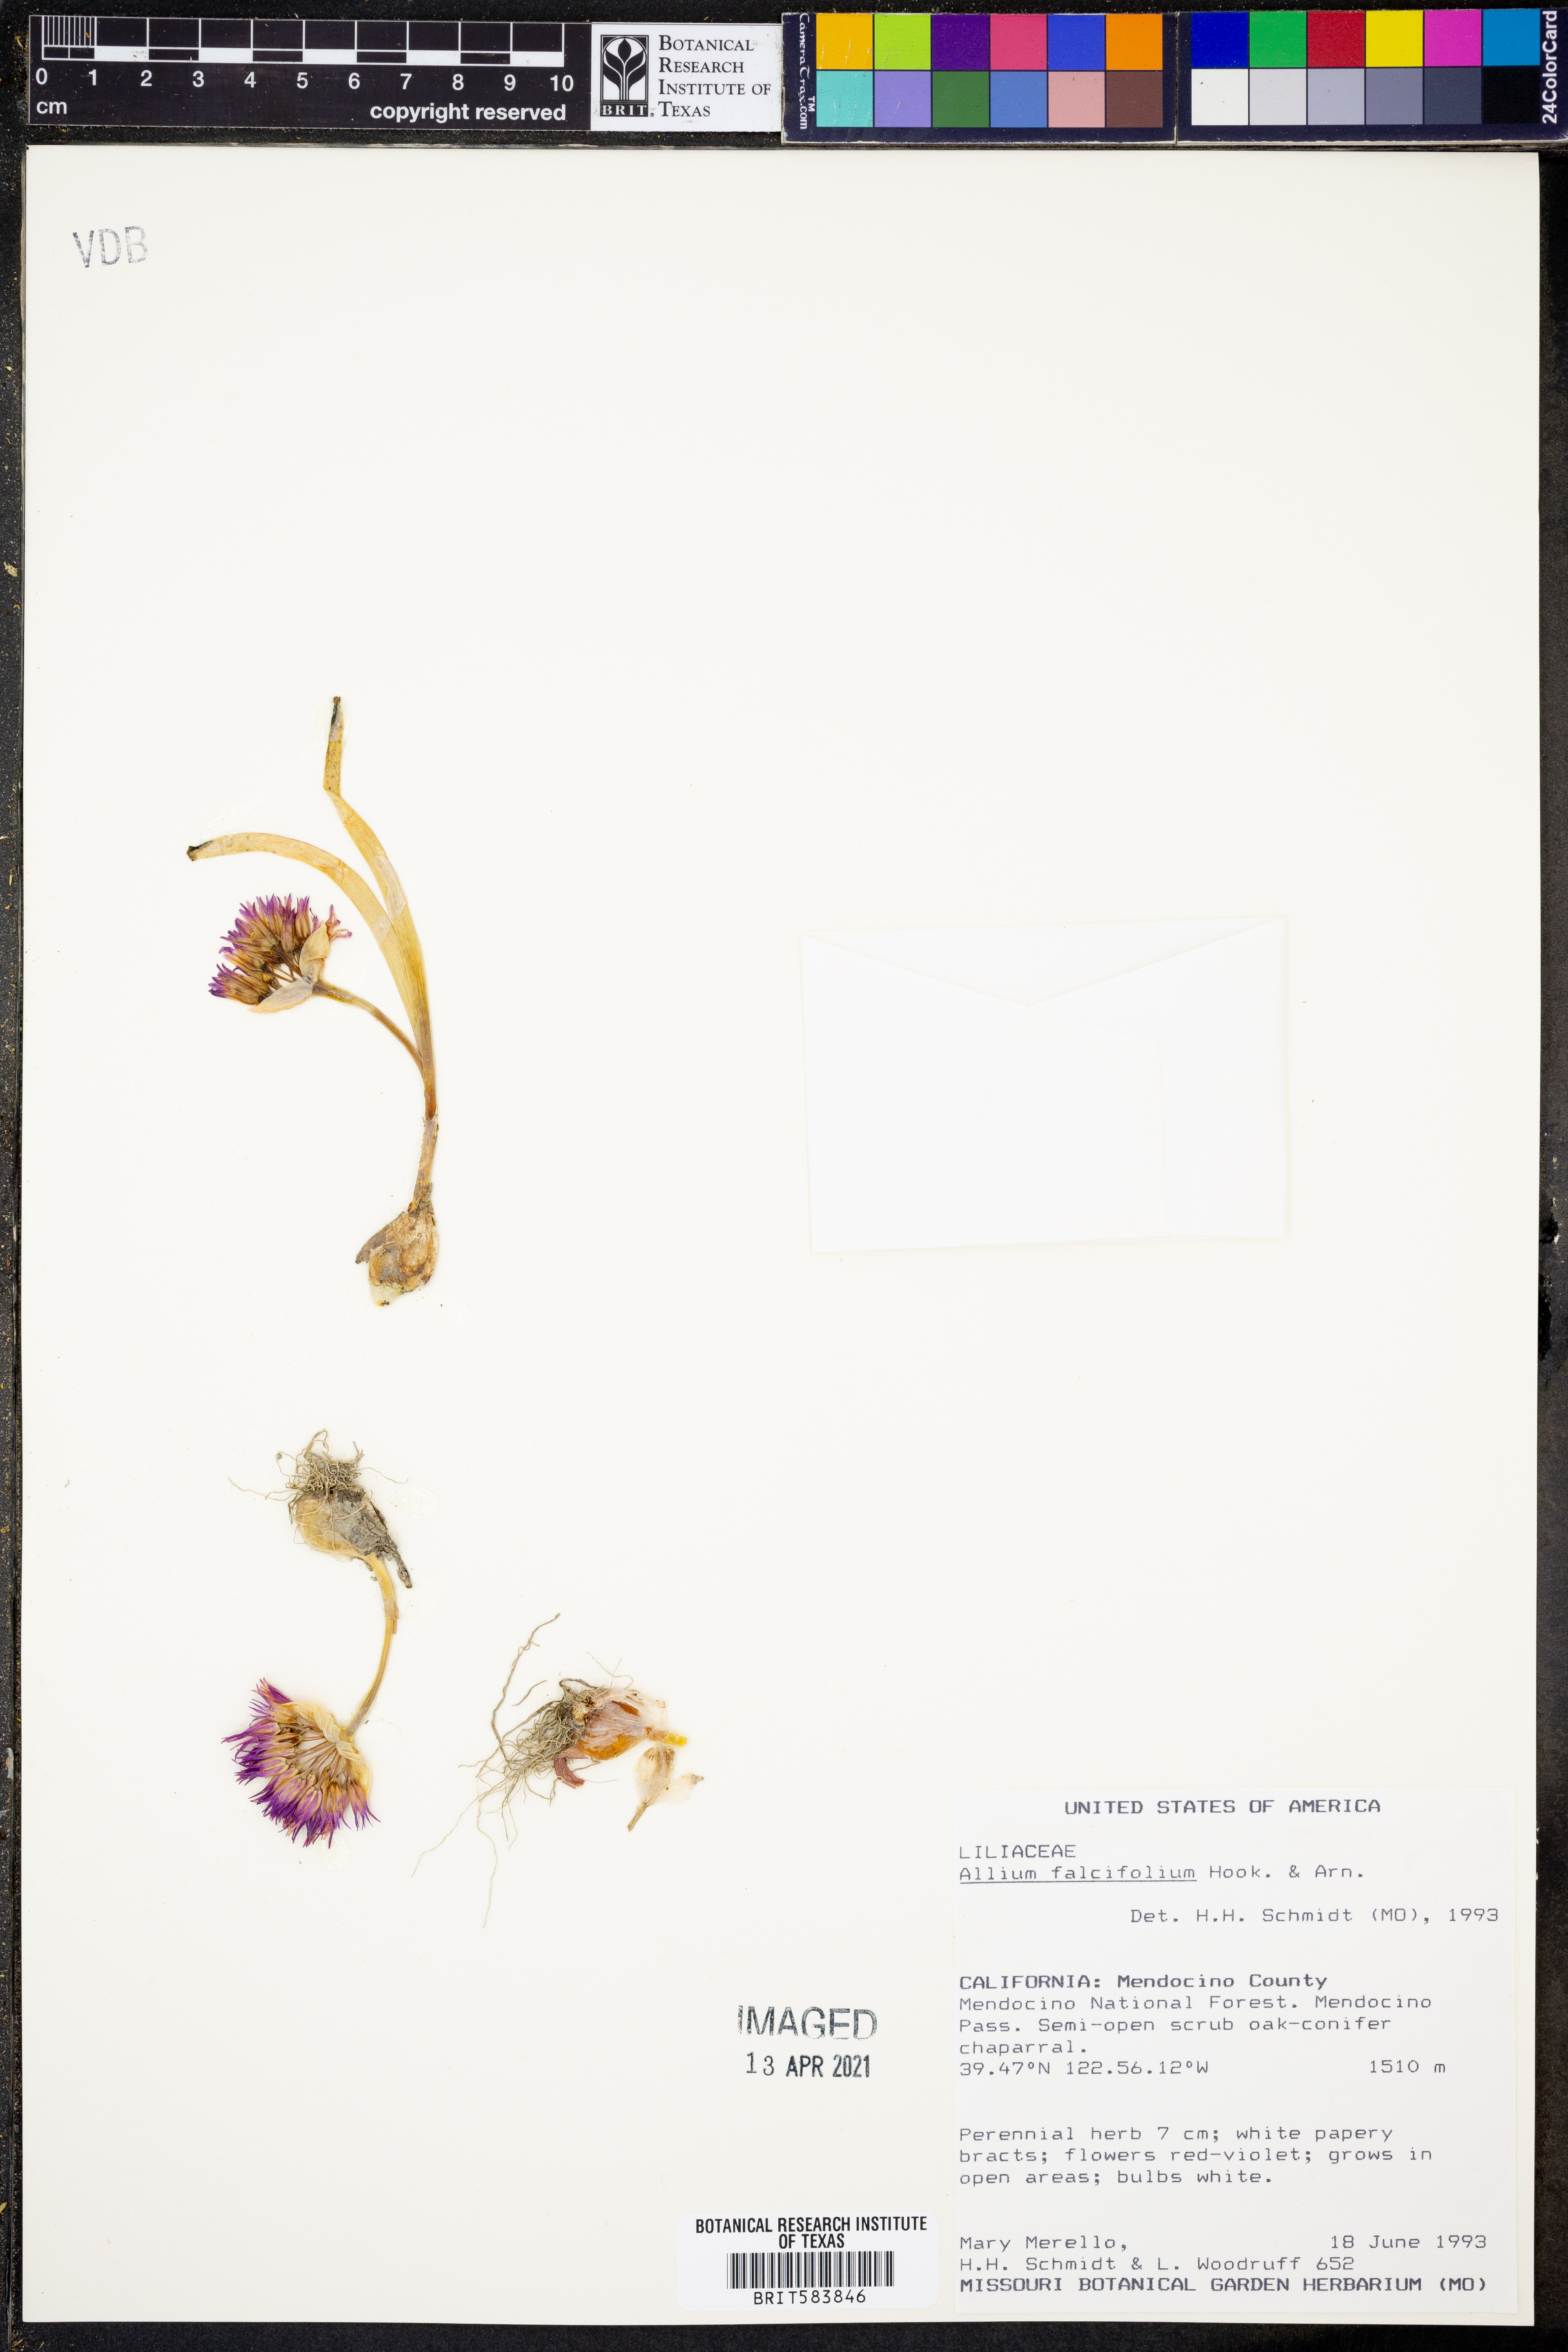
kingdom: Plantae
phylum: Tracheophyta
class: Liliopsida
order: Asparagales
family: Amaryllidaceae
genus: Allium
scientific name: Allium falcifolium
